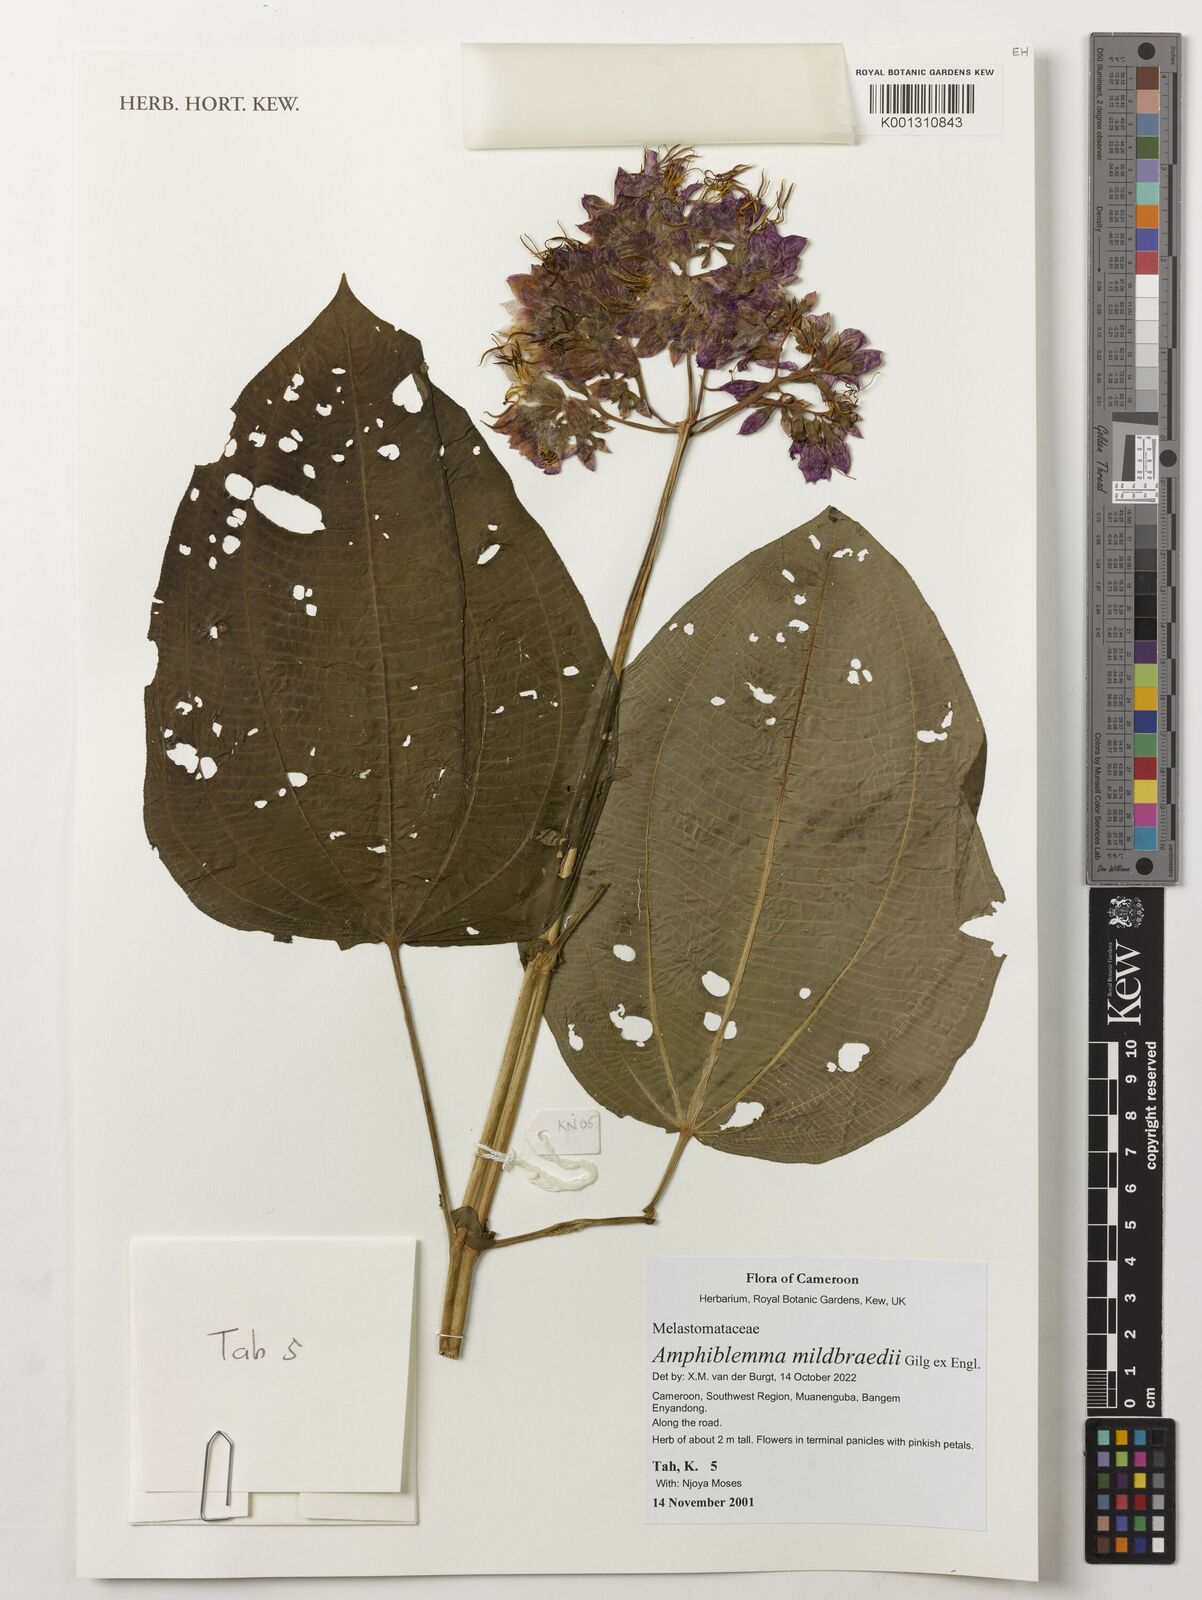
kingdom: Plantae
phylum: Tracheophyta
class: Magnoliopsida
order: Myrtales
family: Melastomataceae
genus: Amphiblemma
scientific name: Amphiblemma mildbraedii
